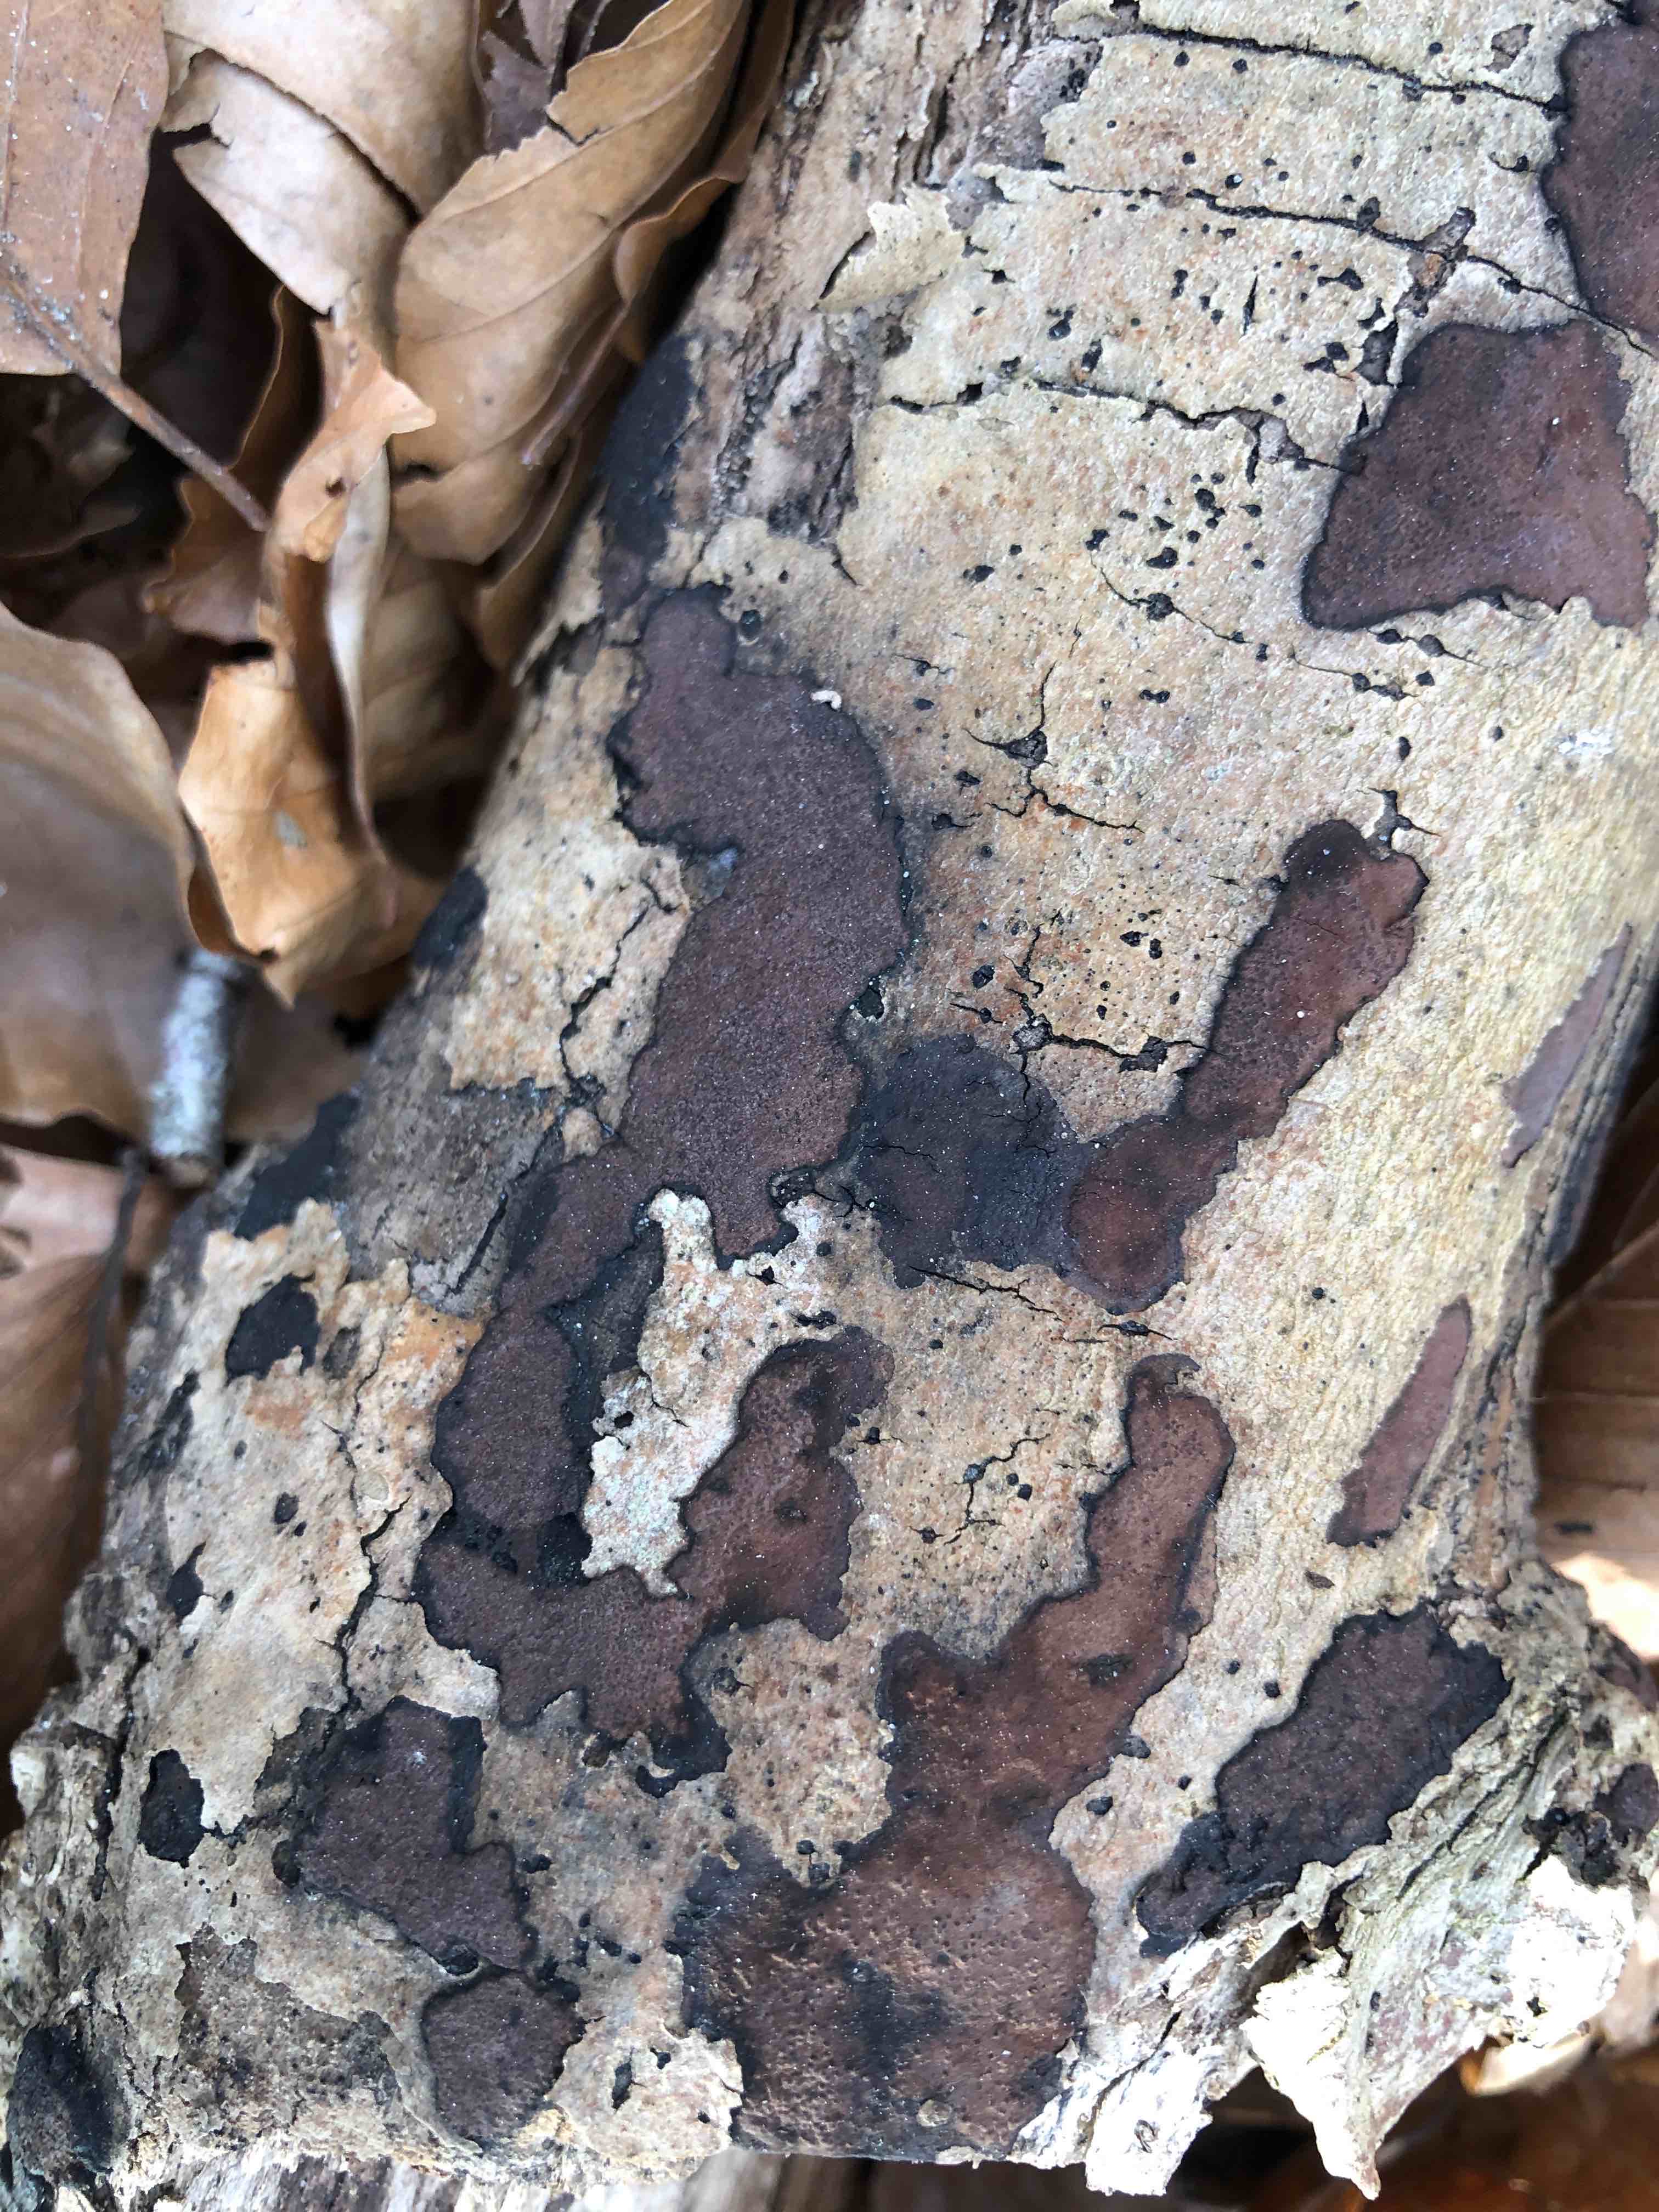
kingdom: Fungi
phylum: Ascomycota
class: Sordariomycetes
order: Xylariales
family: Hypoxylaceae
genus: Hypoxylon
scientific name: Hypoxylon petriniae
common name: nedsænket kulbær
